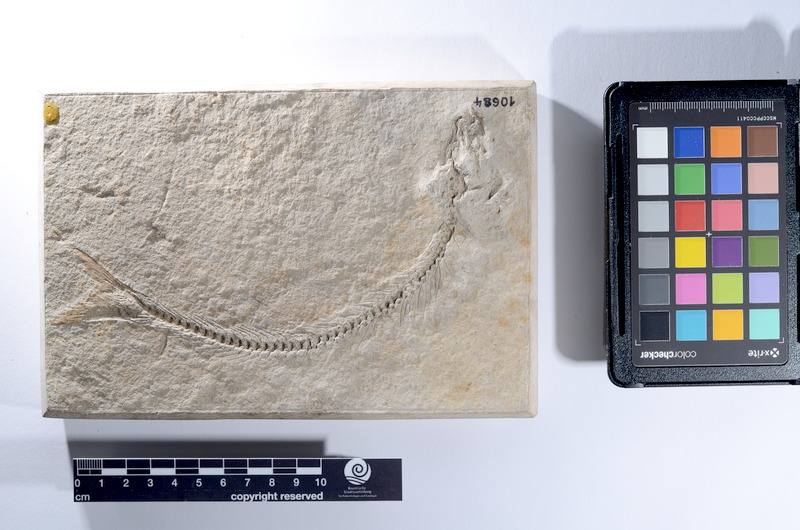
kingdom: Animalia
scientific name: Animalia
